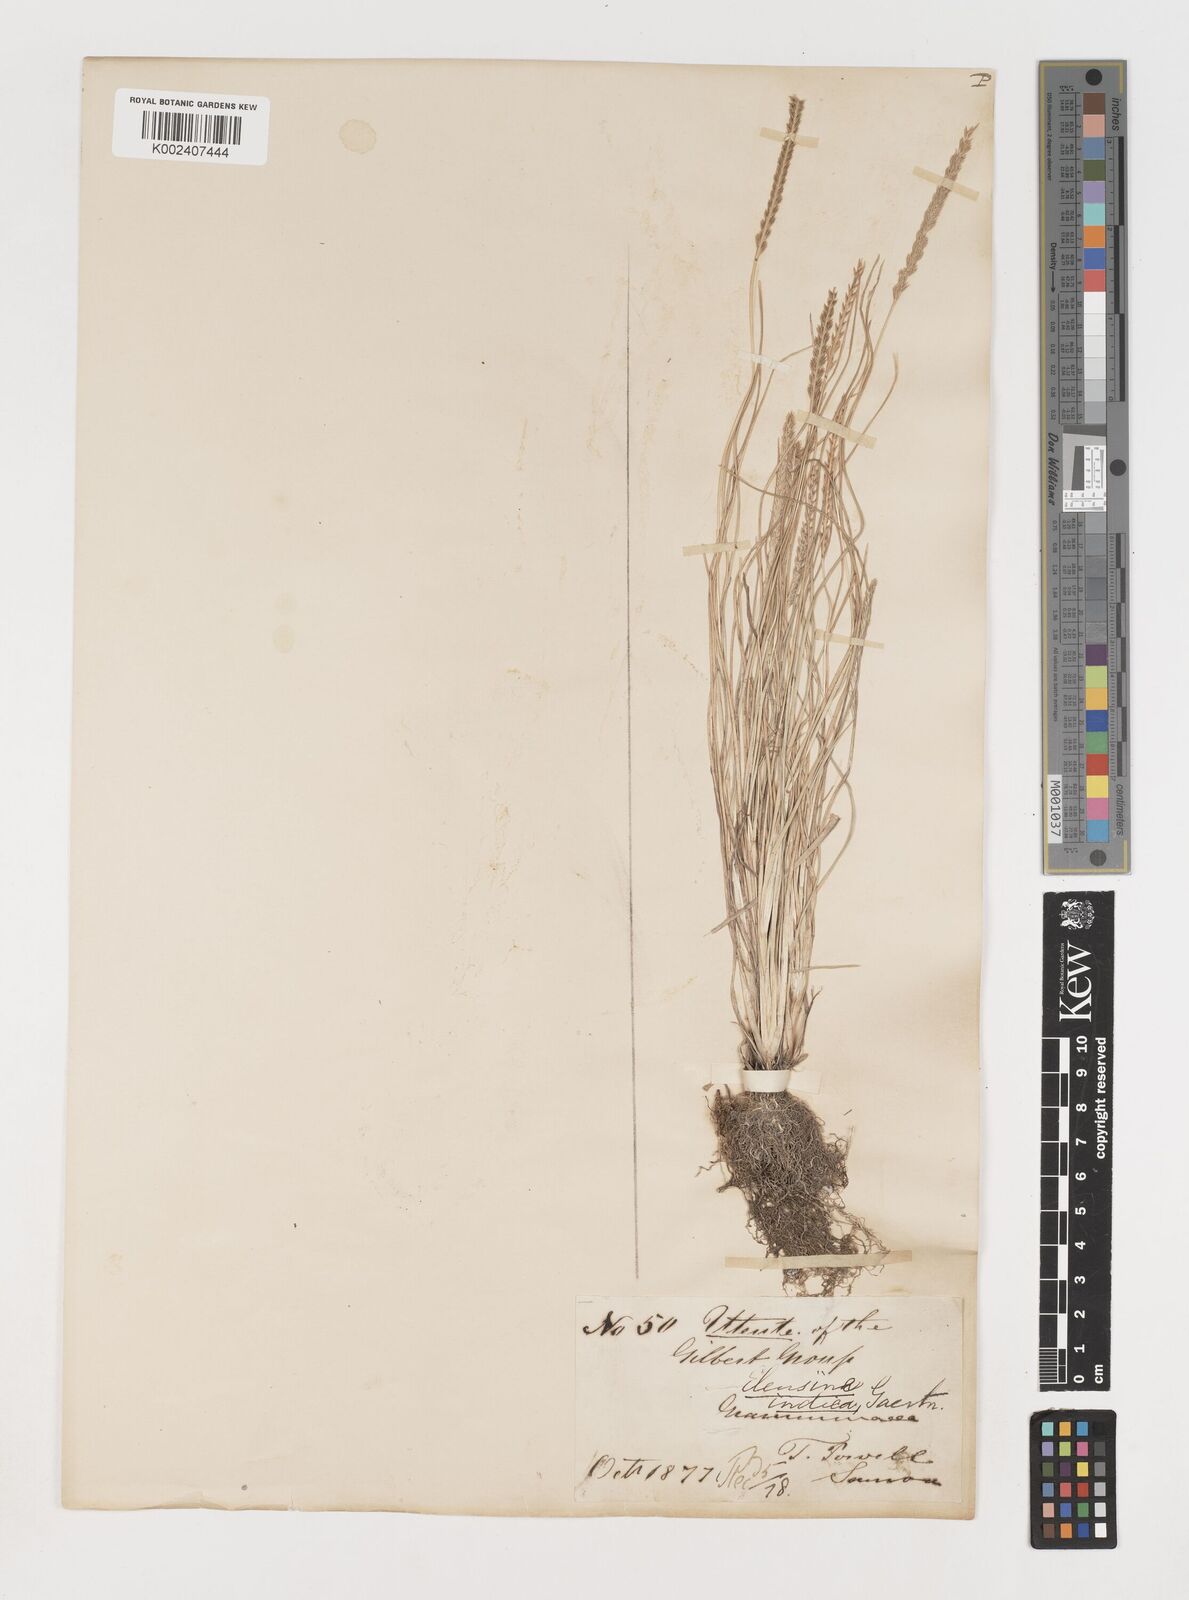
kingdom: Plantae
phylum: Tracheophyta
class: Liliopsida
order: Poales
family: Poaceae
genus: Eleusine
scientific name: Eleusine indica
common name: Yard-grass
